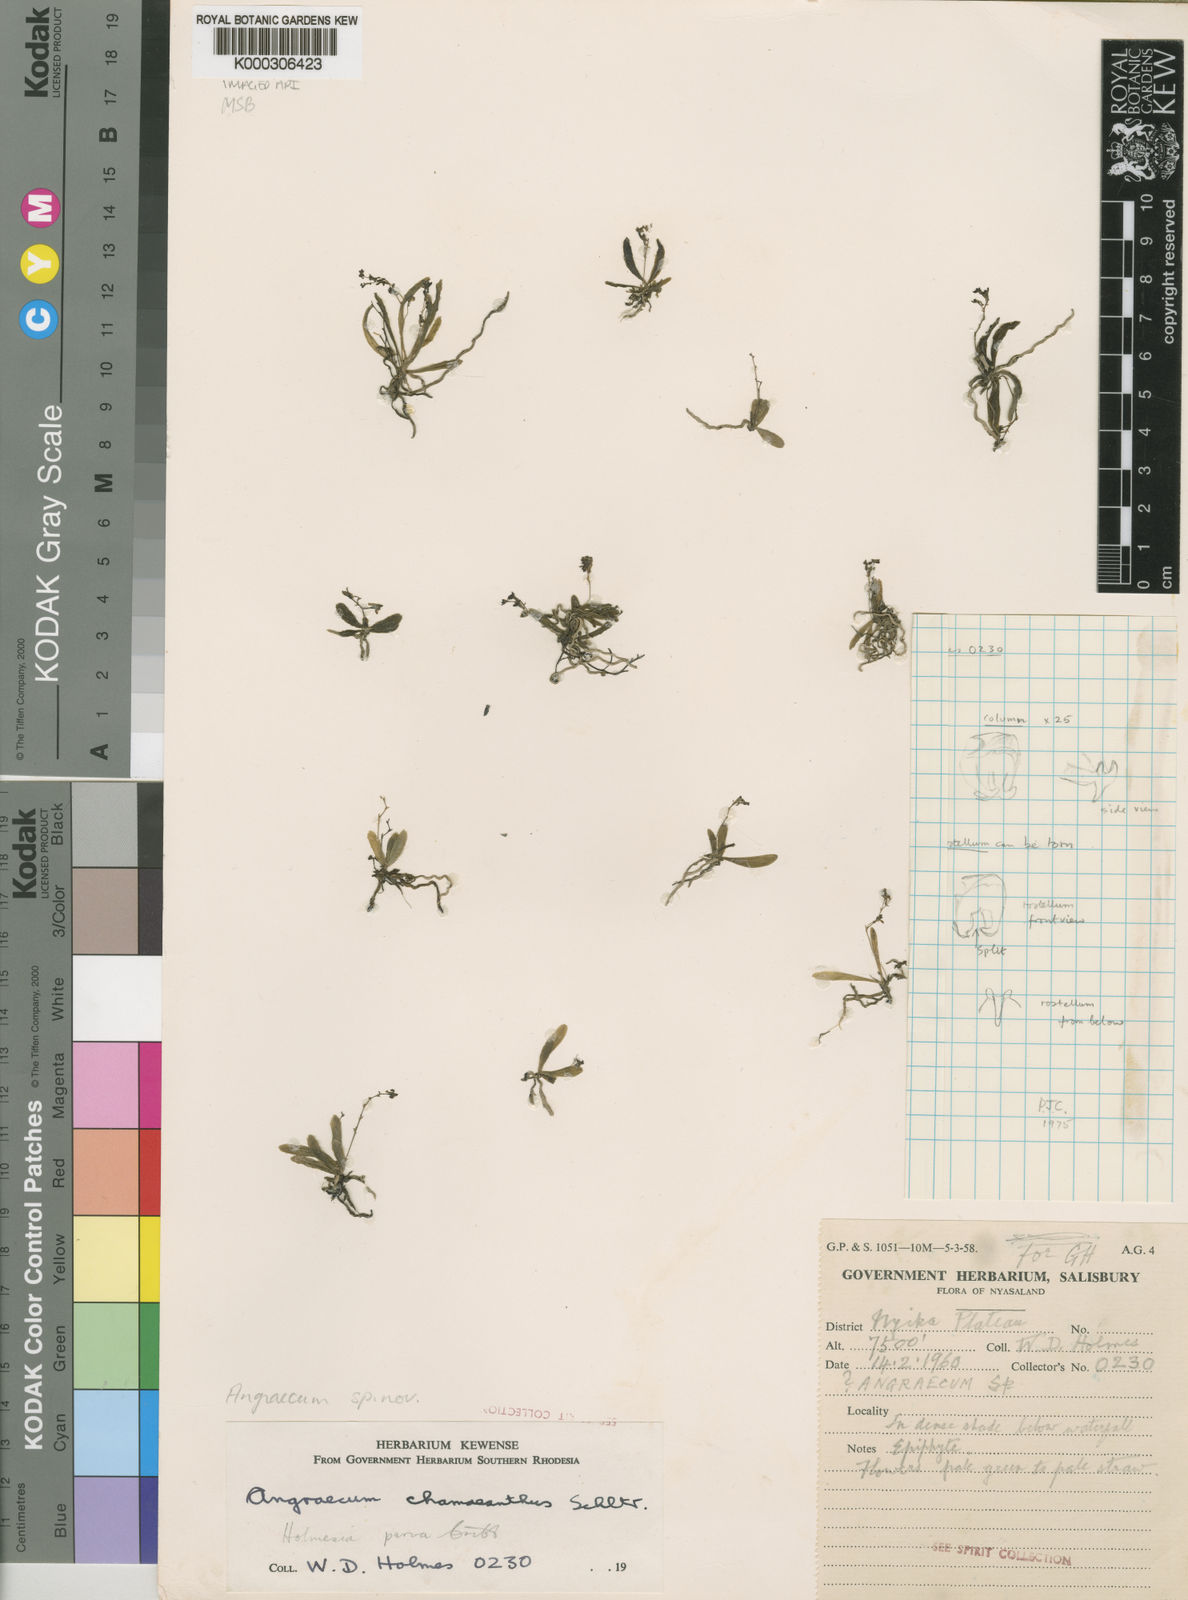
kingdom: Plantae
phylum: Tracheophyta
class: Liliopsida
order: Asparagales
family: Orchidaceae
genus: Angraecopsis
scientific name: Angraecopsis parva
